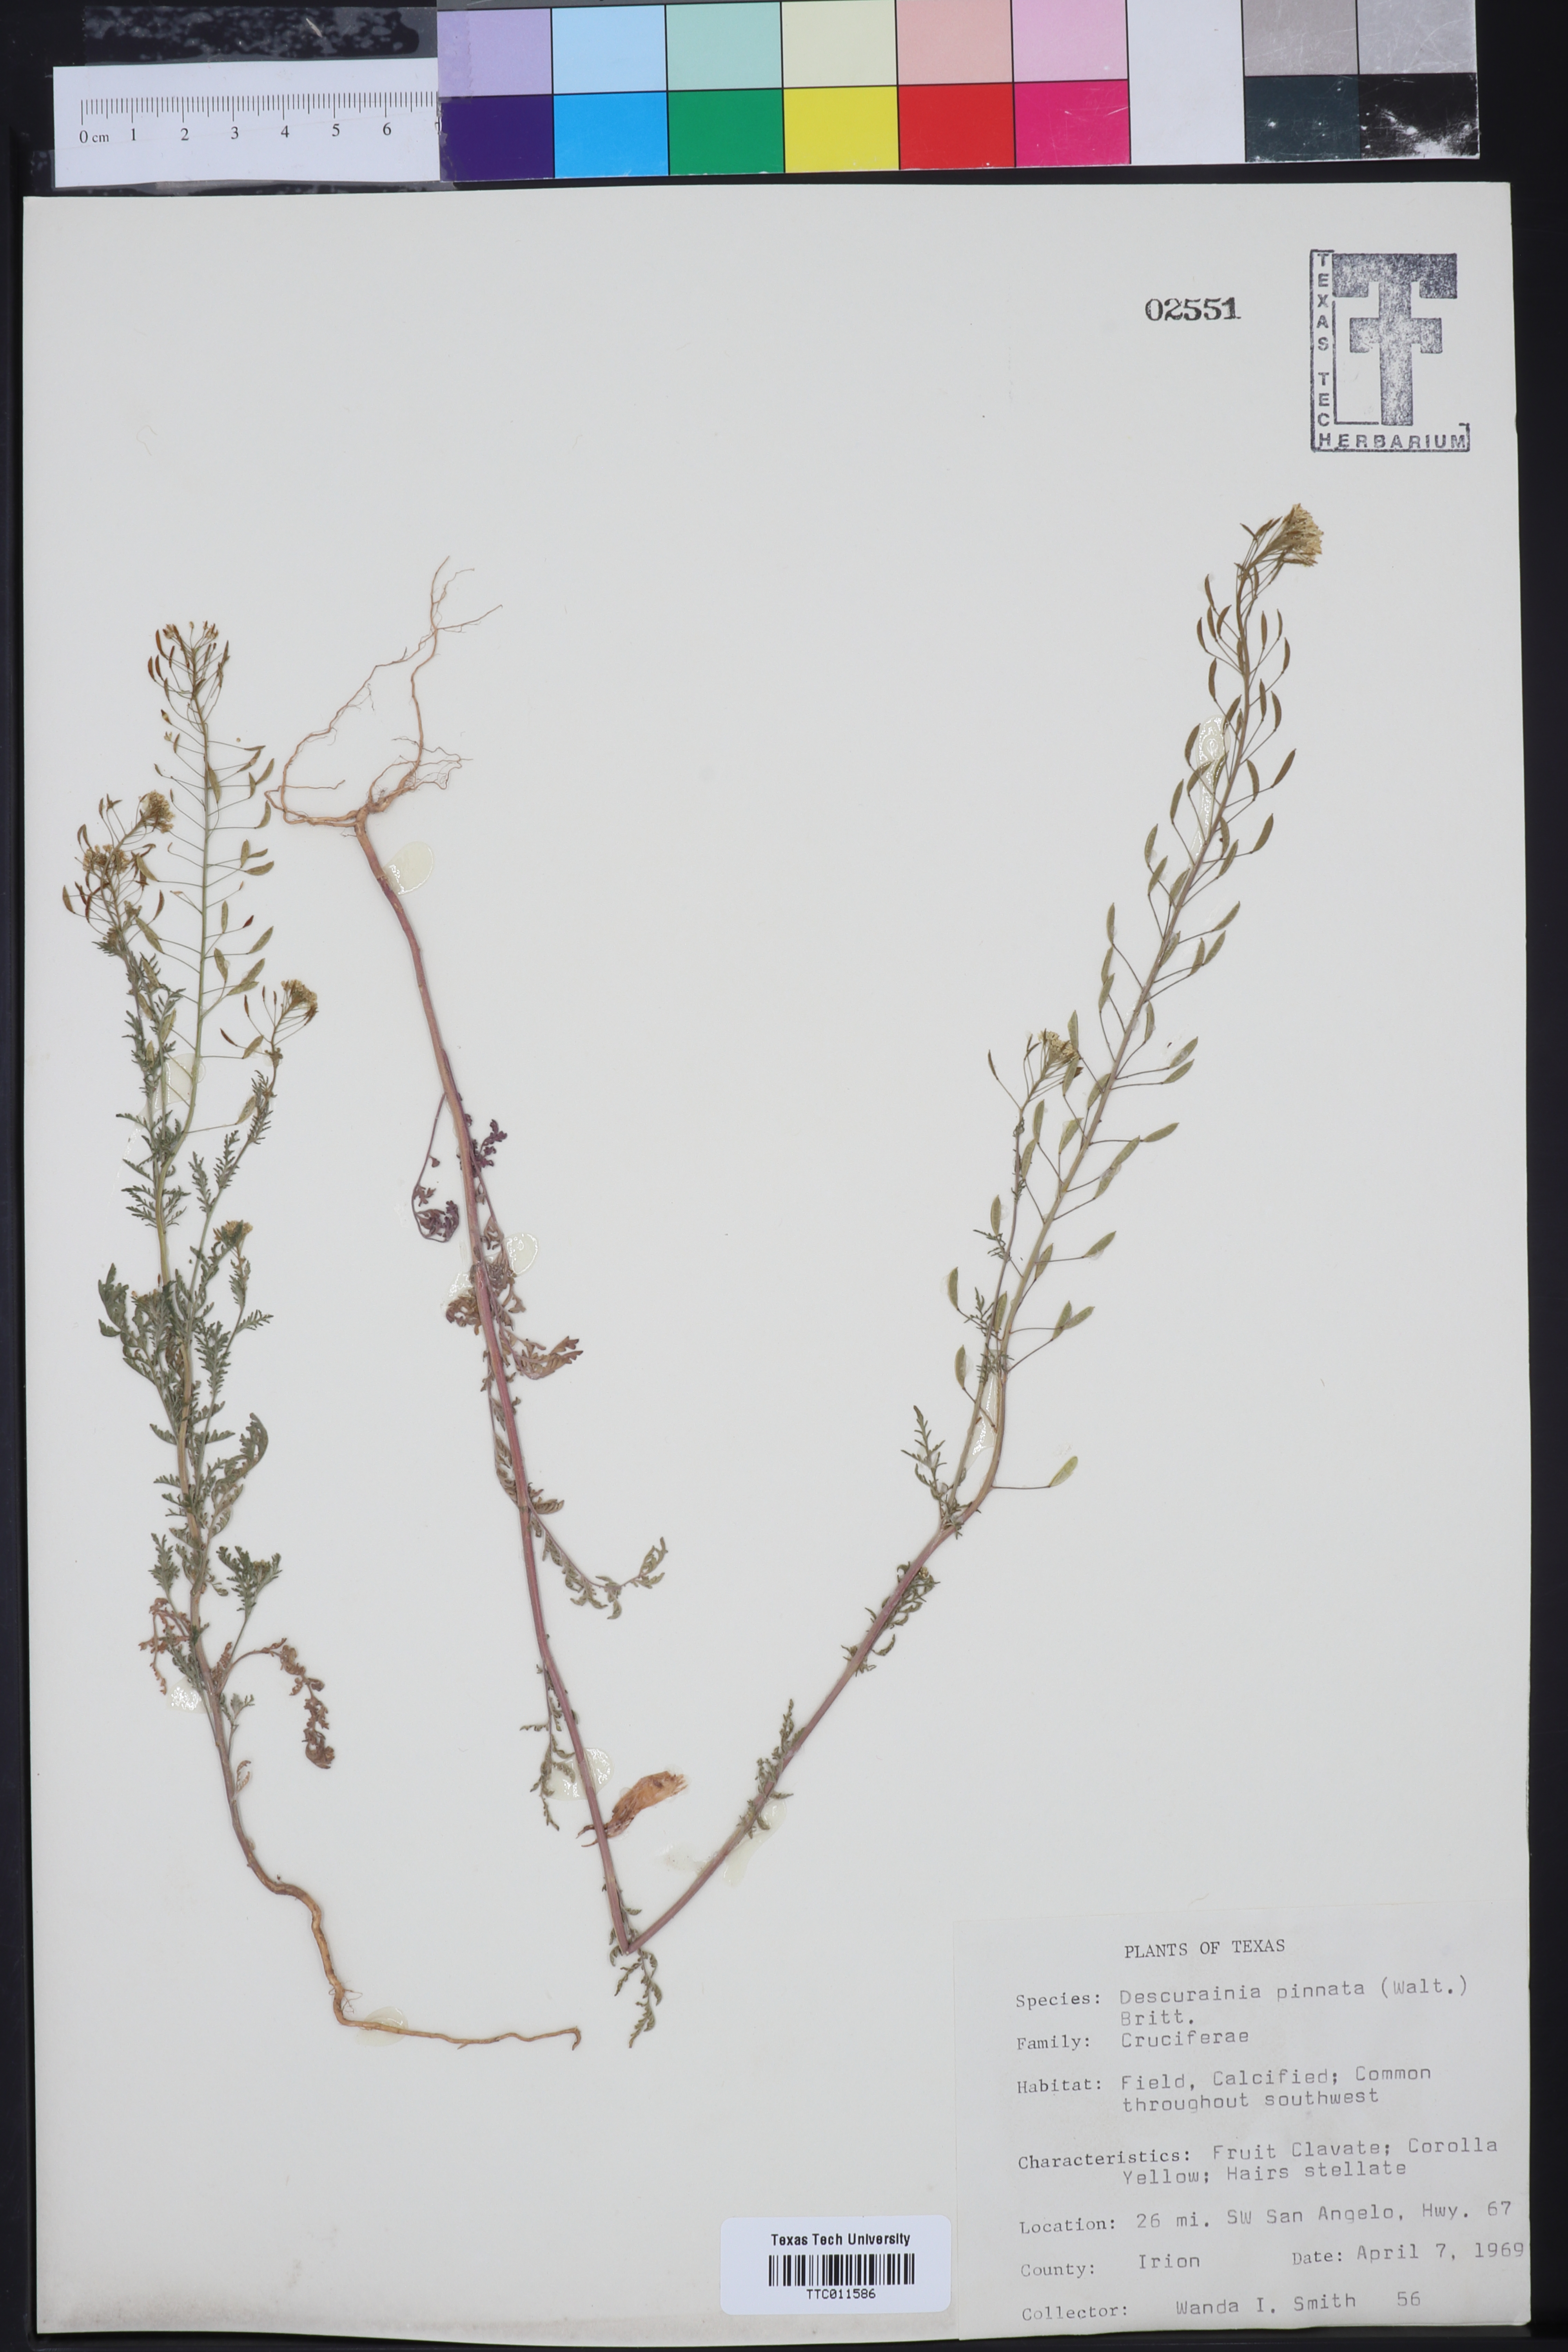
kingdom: Plantae
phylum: Tracheophyta
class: Magnoliopsida
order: Brassicales
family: Brassicaceae
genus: Descurainia
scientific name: Descurainia pinnata
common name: Western tansy mustard
